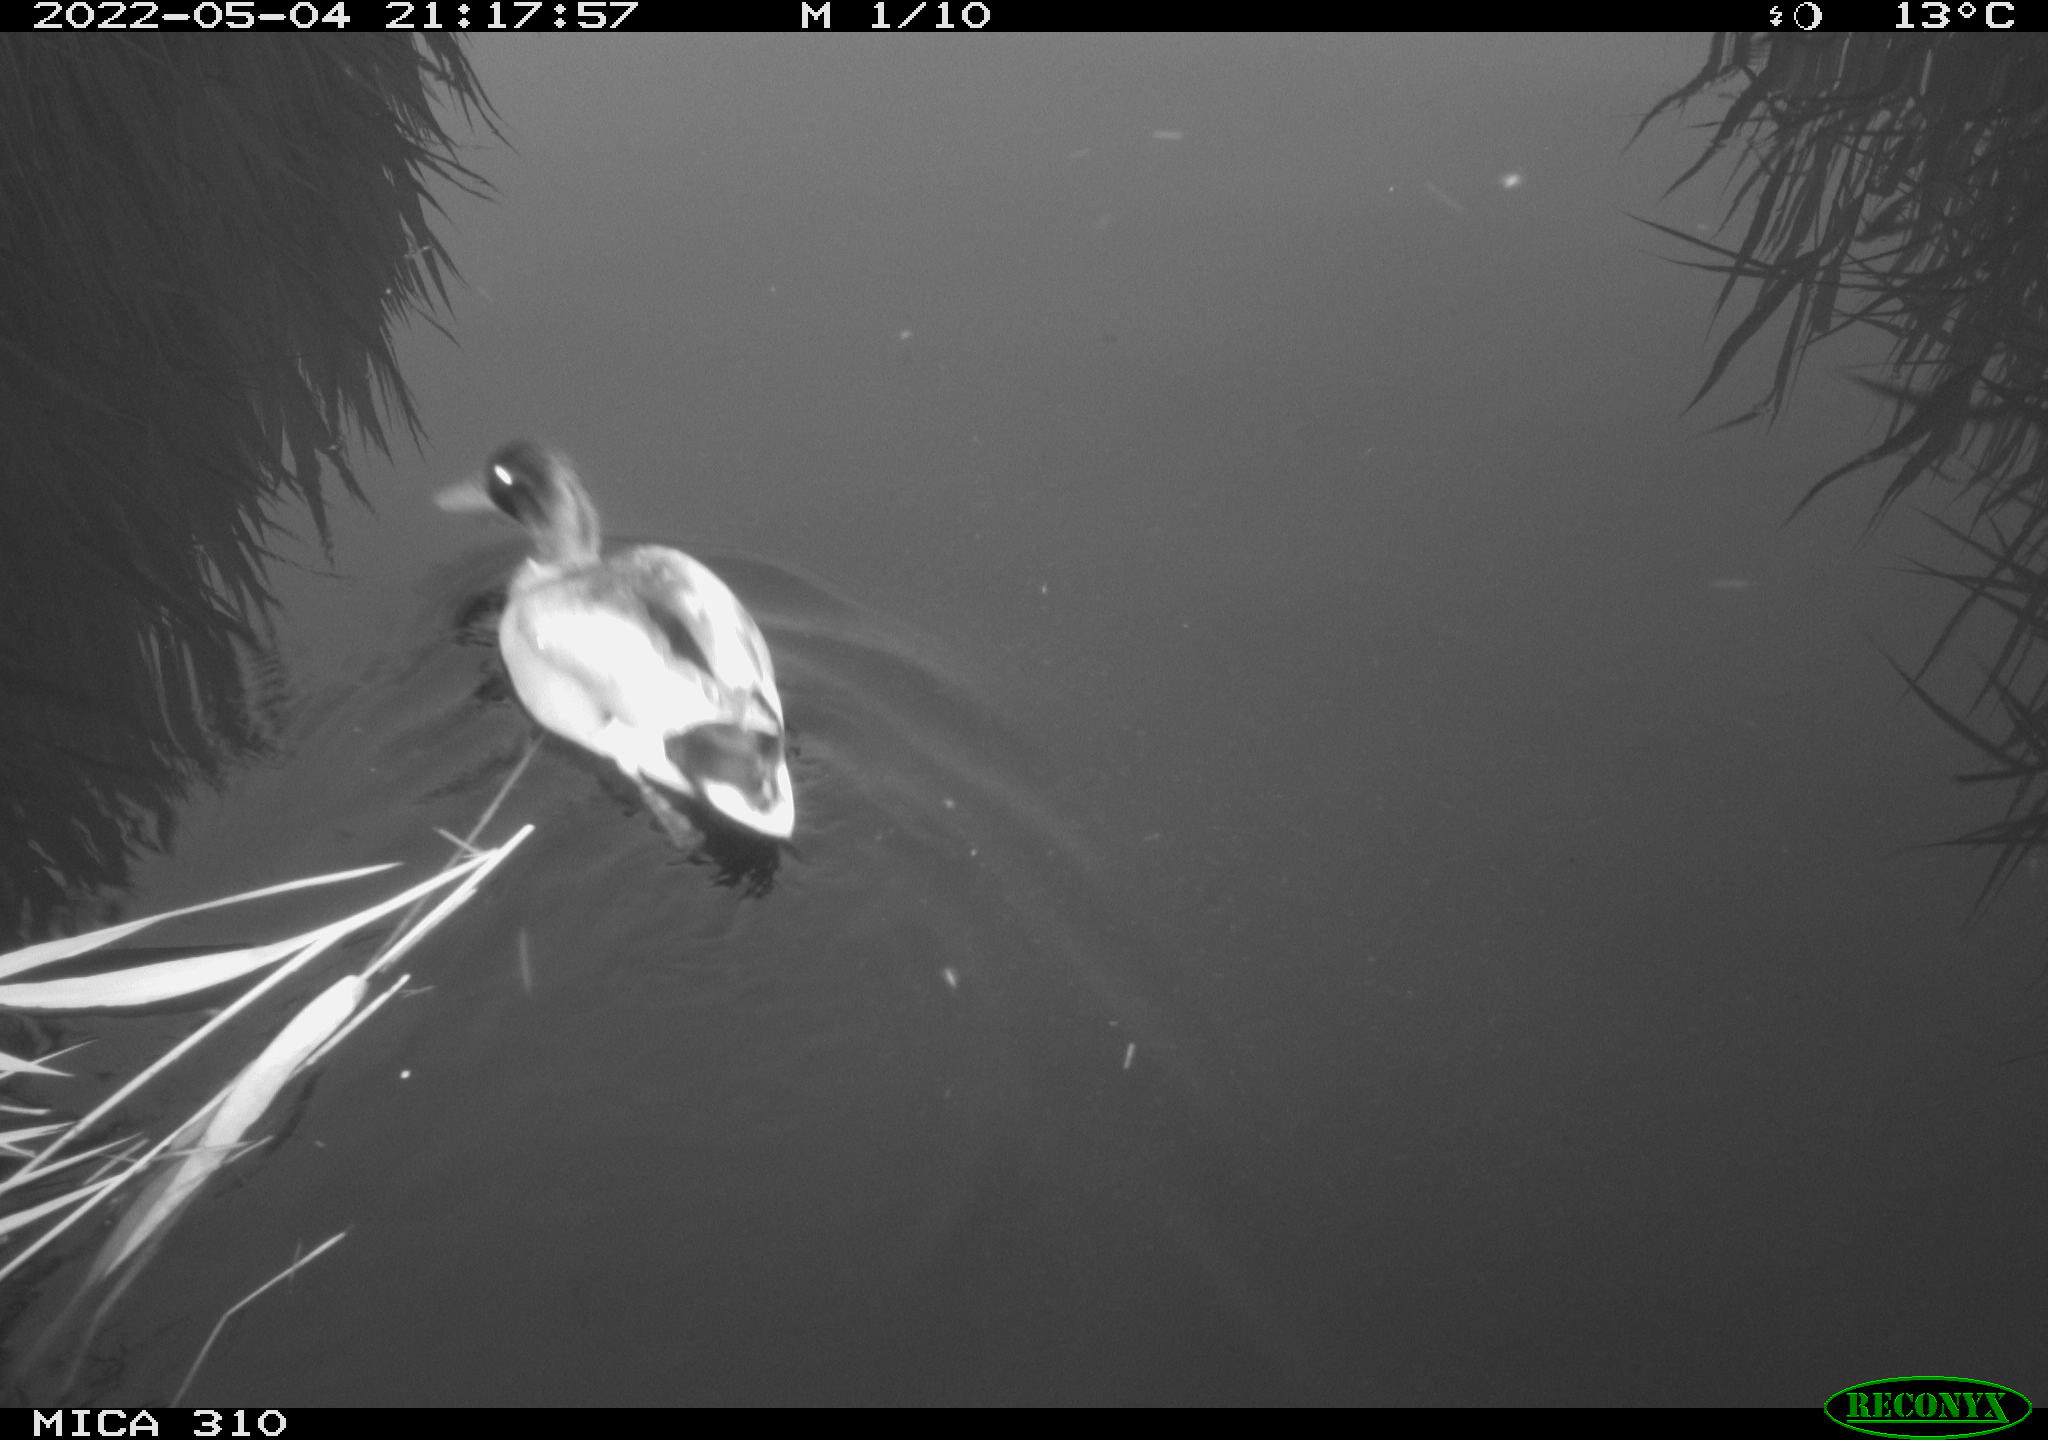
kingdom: Animalia
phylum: Chordata
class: Aves
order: Anseriformes
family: Anatidae
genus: Anas
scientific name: Anas platyrhynchos
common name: Mallard
